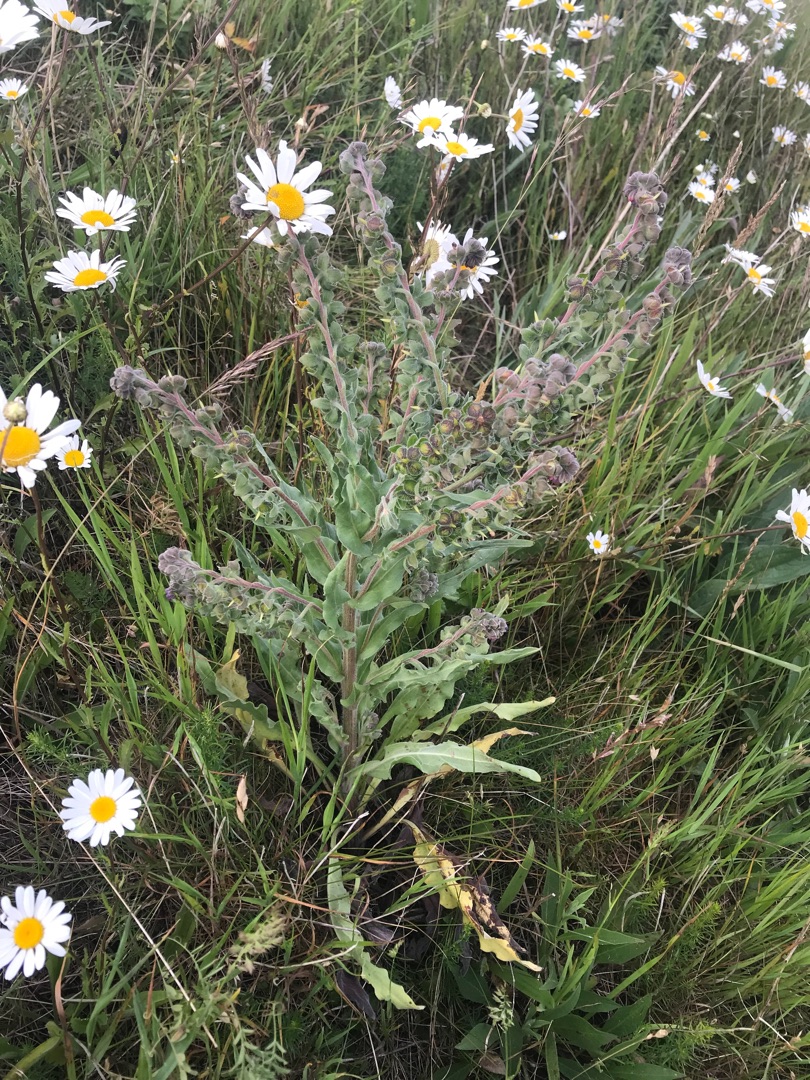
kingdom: Plantae
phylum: Tracheophyta
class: Magnoliopsida
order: Boraginales
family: Boraginaceae
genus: Cynoglossum
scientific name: Cynoglossum officinale
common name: Hundetunge
